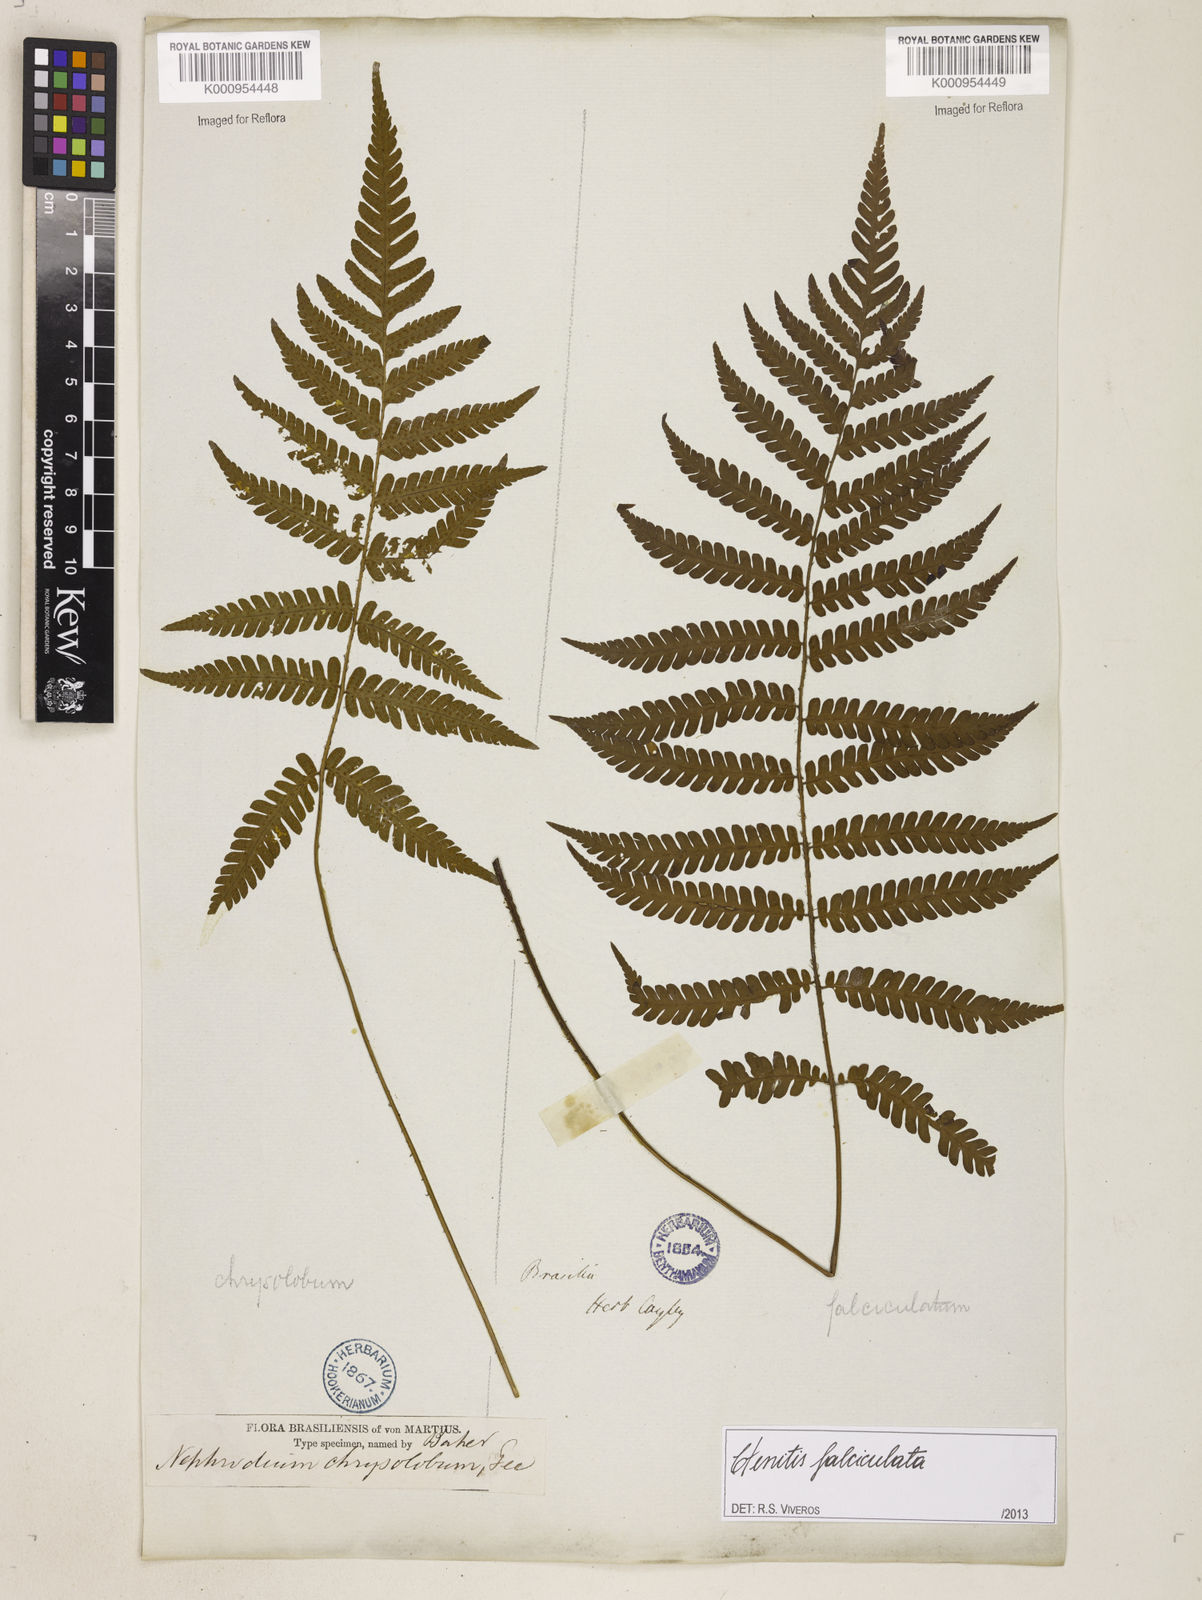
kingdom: Plantae
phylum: Tracheophyta
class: Polypodiopsida
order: Polypodiales
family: Dryopteridaceae
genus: Ctenitis
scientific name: Ctenitis falciculata
